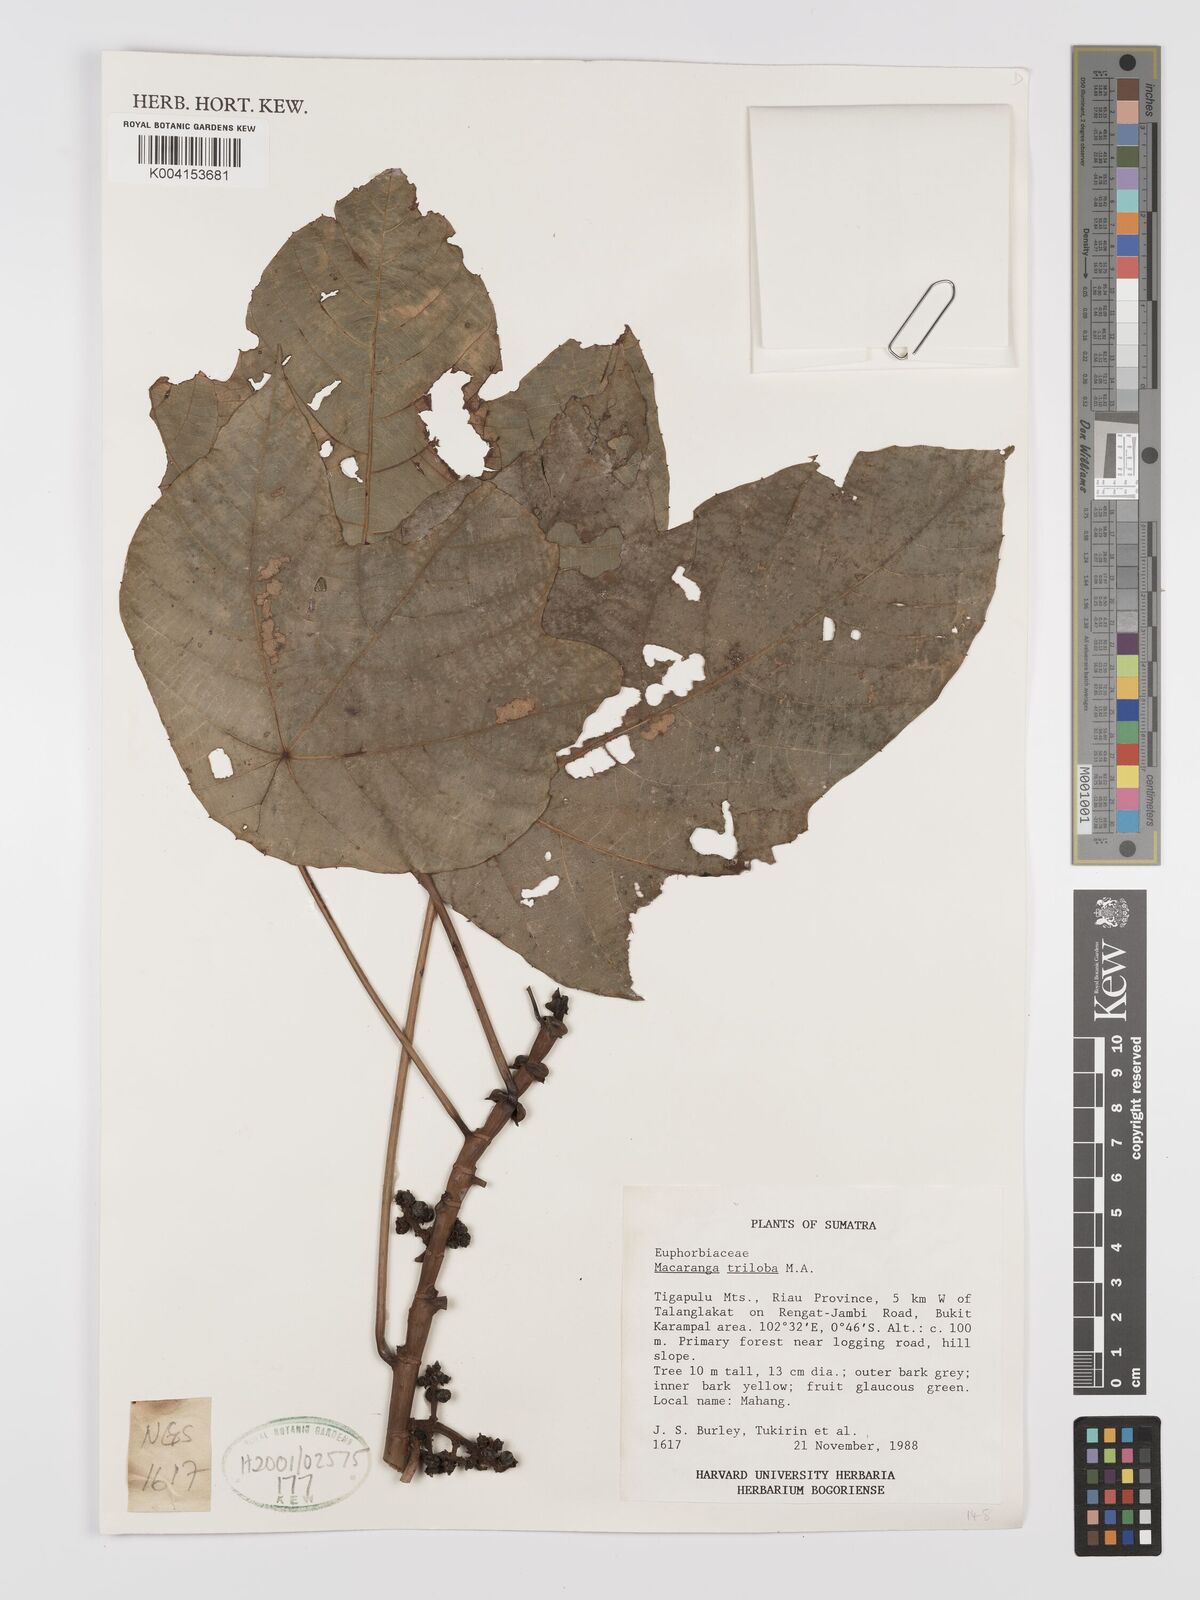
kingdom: Plantae
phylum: Tracheophyta
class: Magnoliopsida
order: Malpighiales
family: Euphorbiaceae
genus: Macaranga
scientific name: Macaranga triloba
